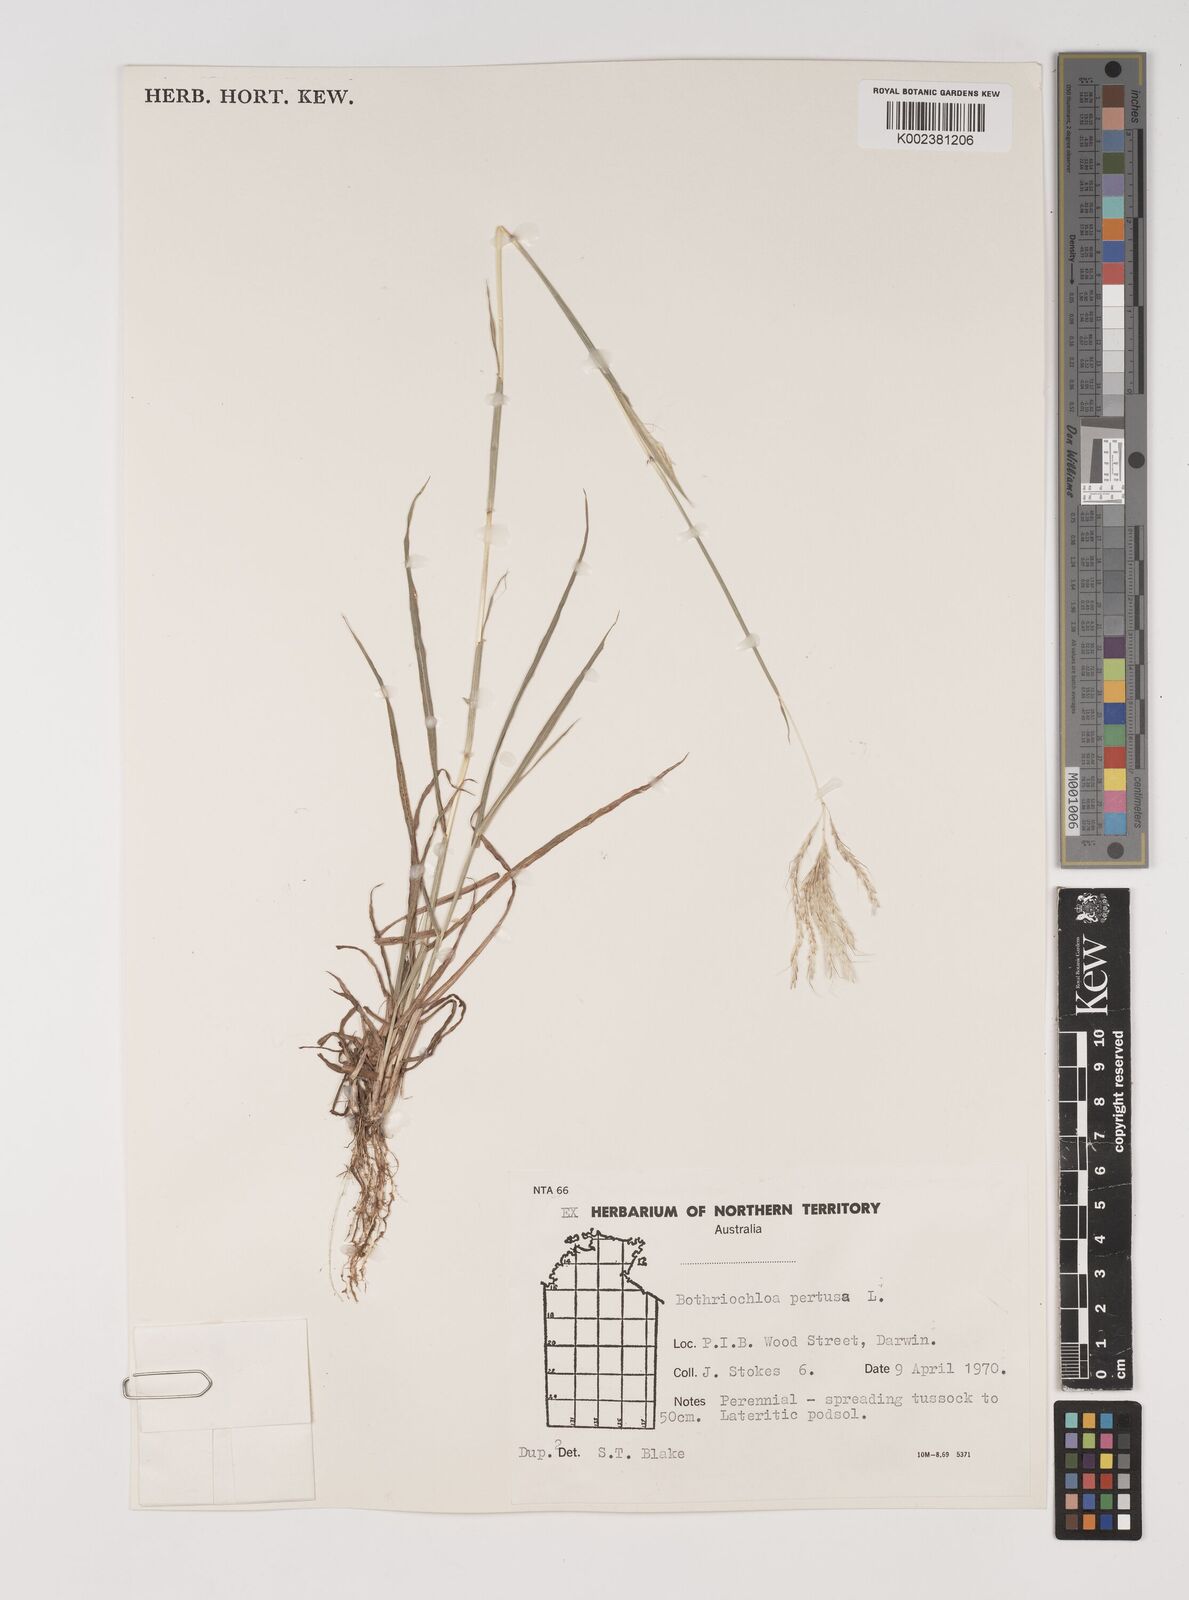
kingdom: Plantae
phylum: Tracheophyta
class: Liliopsida
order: Poales
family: Poaceae
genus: Bothriochloa
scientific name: Bothriochloa pertusa
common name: Pitted beardgrass
